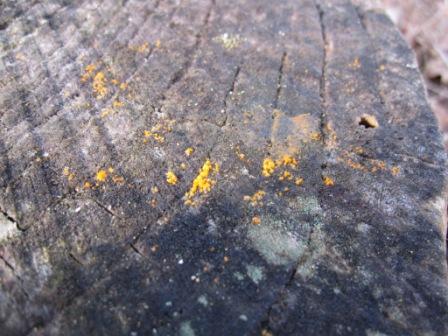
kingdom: Fungi
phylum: Basidiomycota
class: Dacrymycetes
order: Dacrymycetales
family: Dacrymycetaceae
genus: Dacrymyces
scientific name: Dacrymyces stillatus
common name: almindelig tåresvamp
